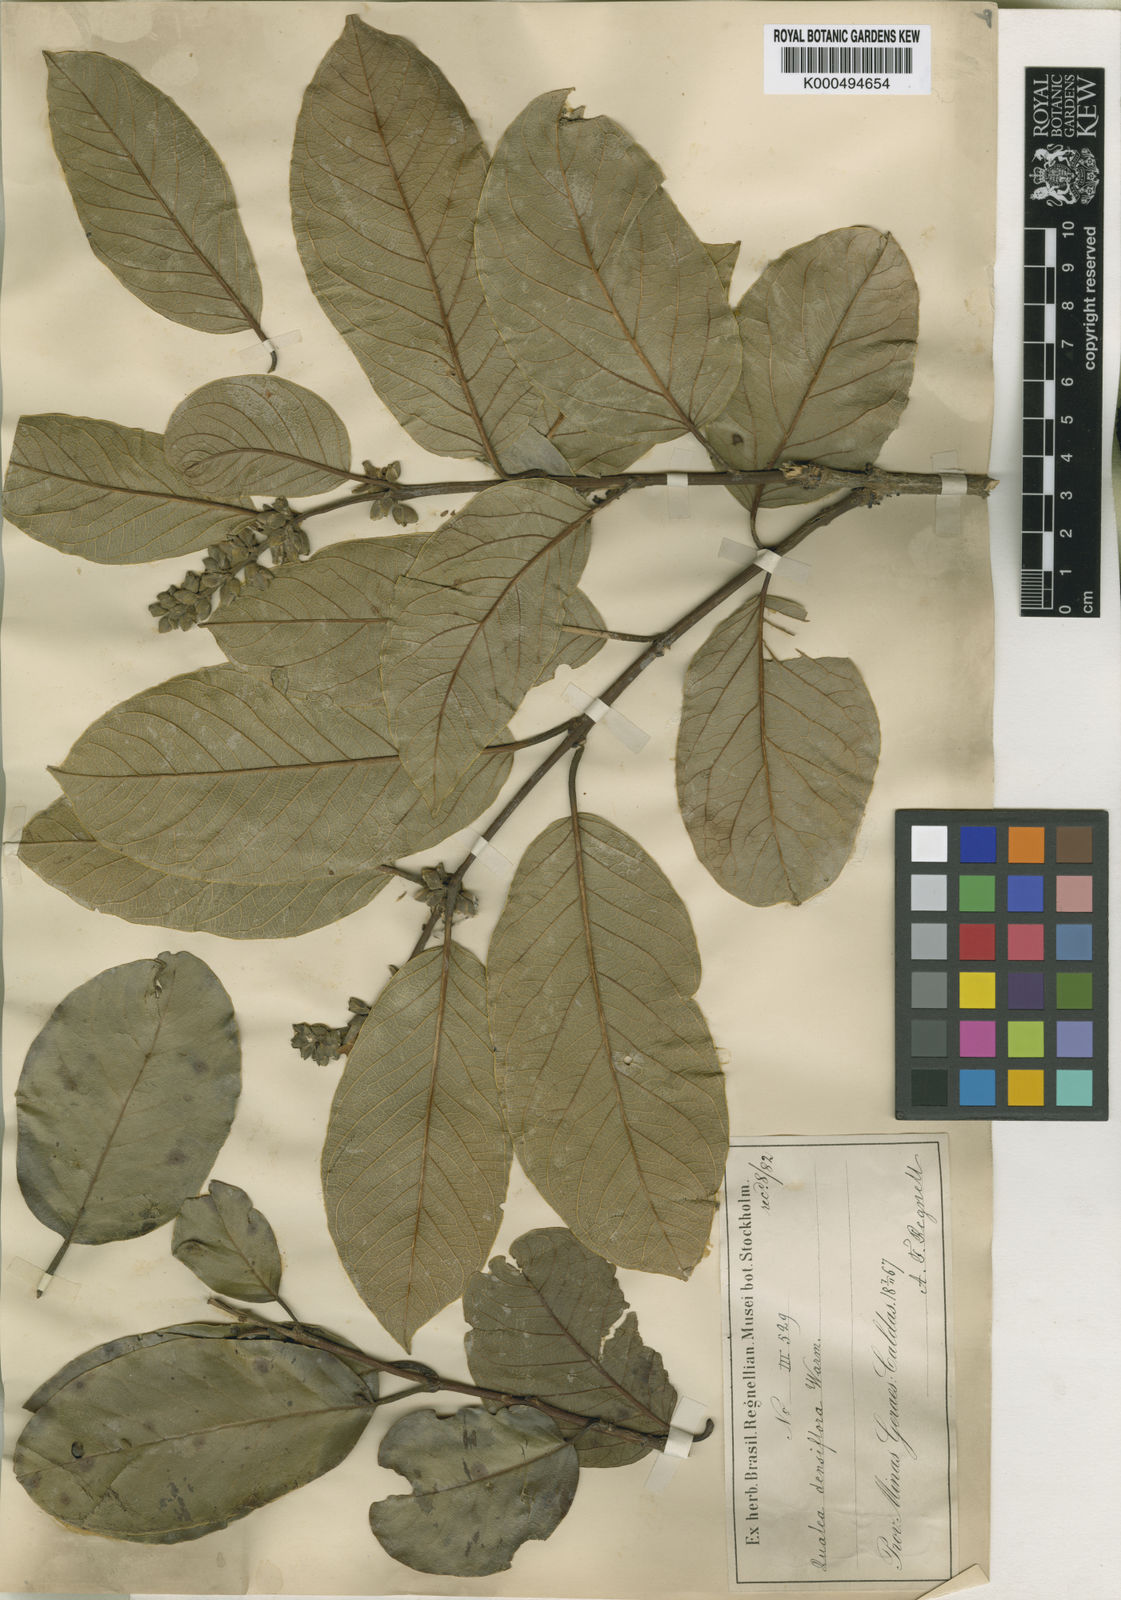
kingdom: Plantae
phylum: Tracheophyta
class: Magnoliopsida
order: Myrtales
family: Vochysiaceae
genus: Qualea
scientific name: Qualea densiflora
